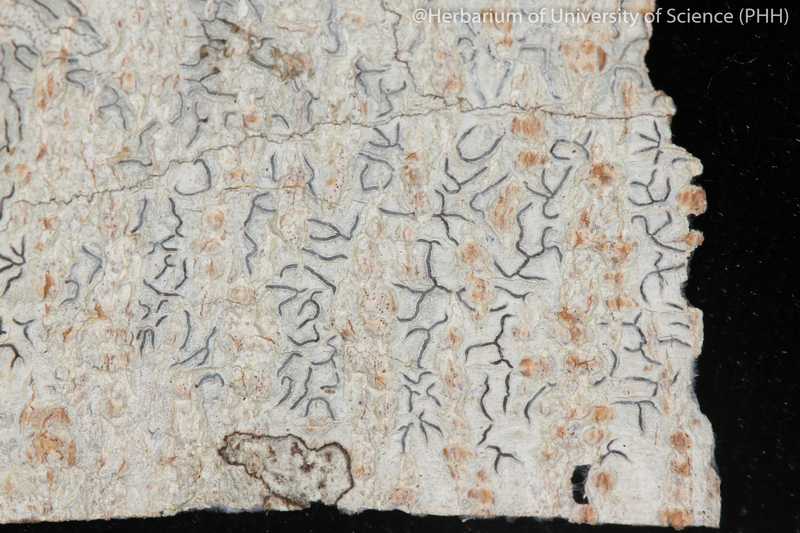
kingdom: Fungi
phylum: Ascomycota
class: Lecanoromycetes
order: Ostropales
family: Graphidaceae
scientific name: Graphidaceae
